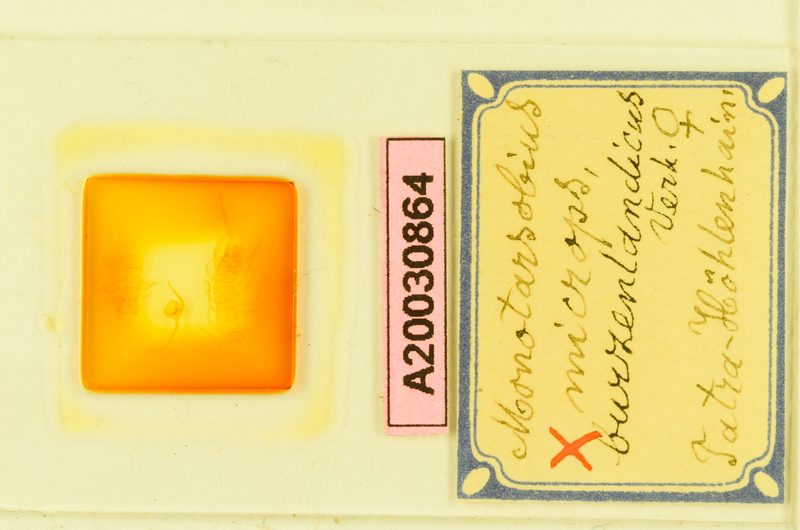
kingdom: Animalia
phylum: Arthropoda
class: Chilopoda
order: Lithobiomorpha
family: Lithobiidae
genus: Monotarsobius
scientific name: Monotarsobius microps
